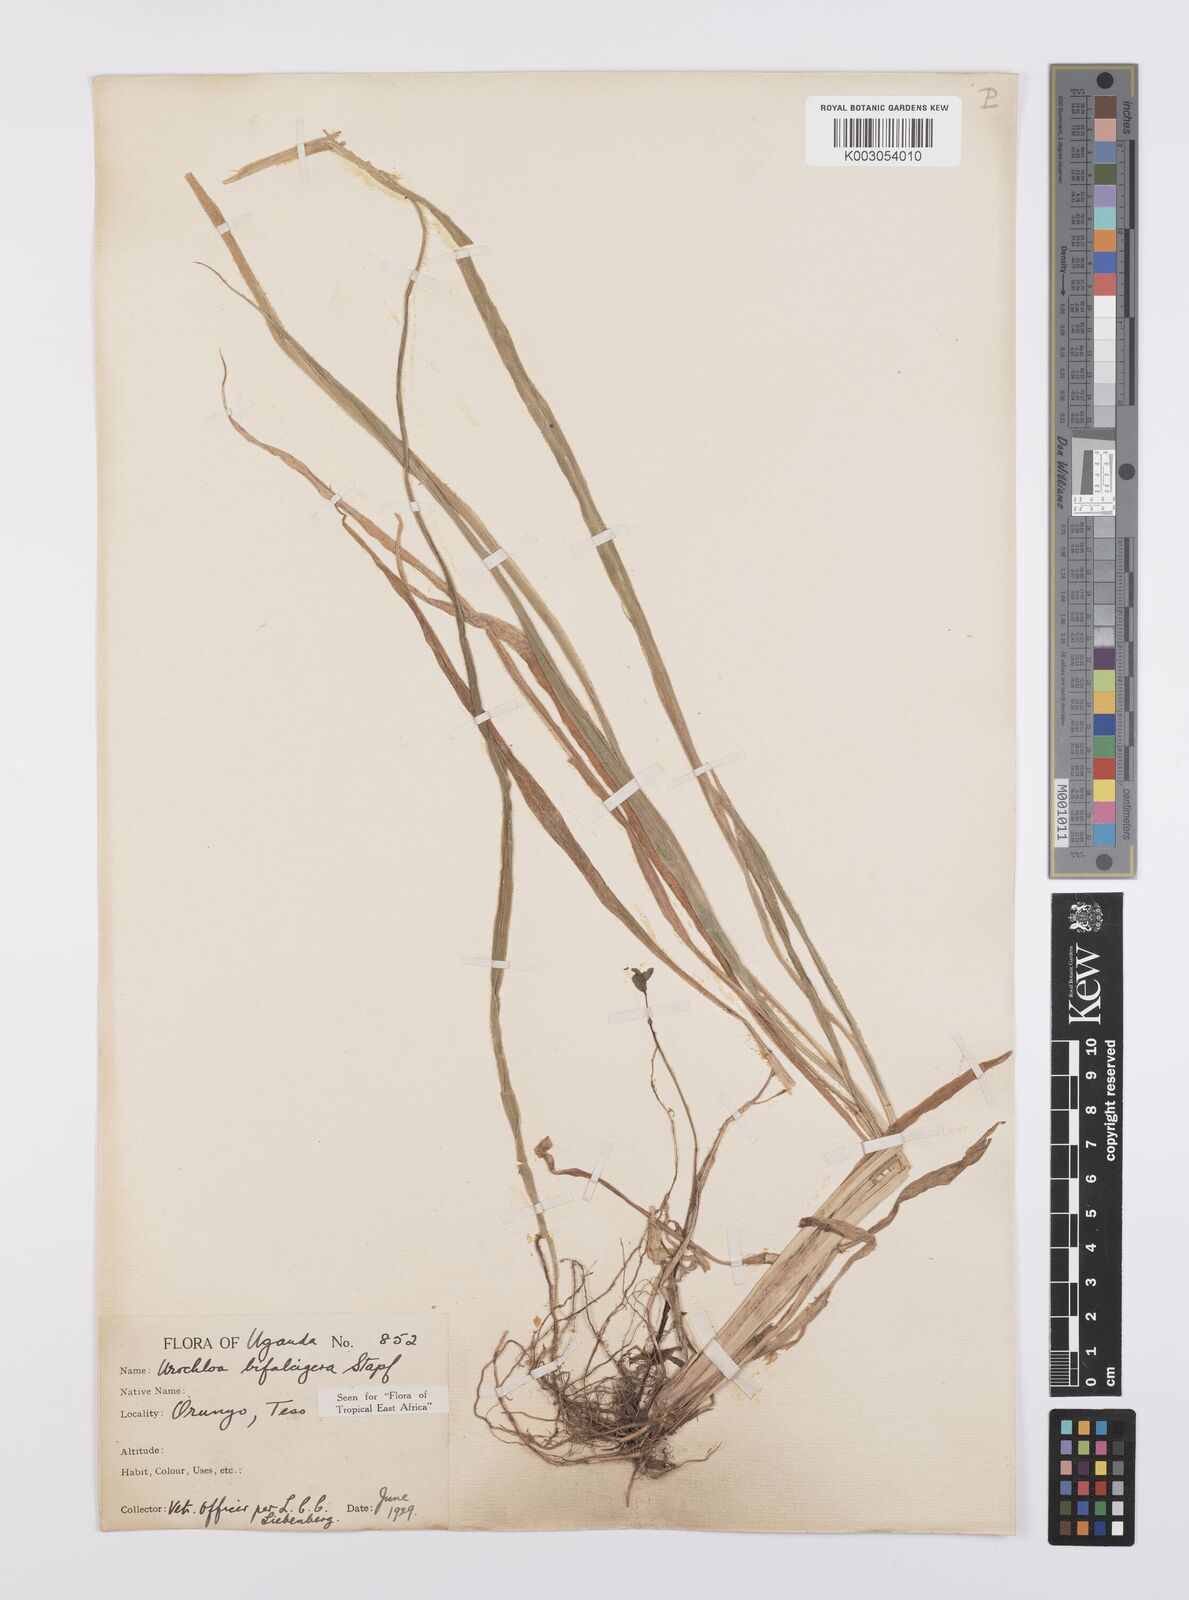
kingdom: Plantae
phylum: Tracheophyta
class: Liliopsida
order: Poales
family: Poaceae
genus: Urochloa
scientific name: Urochloa platynota
